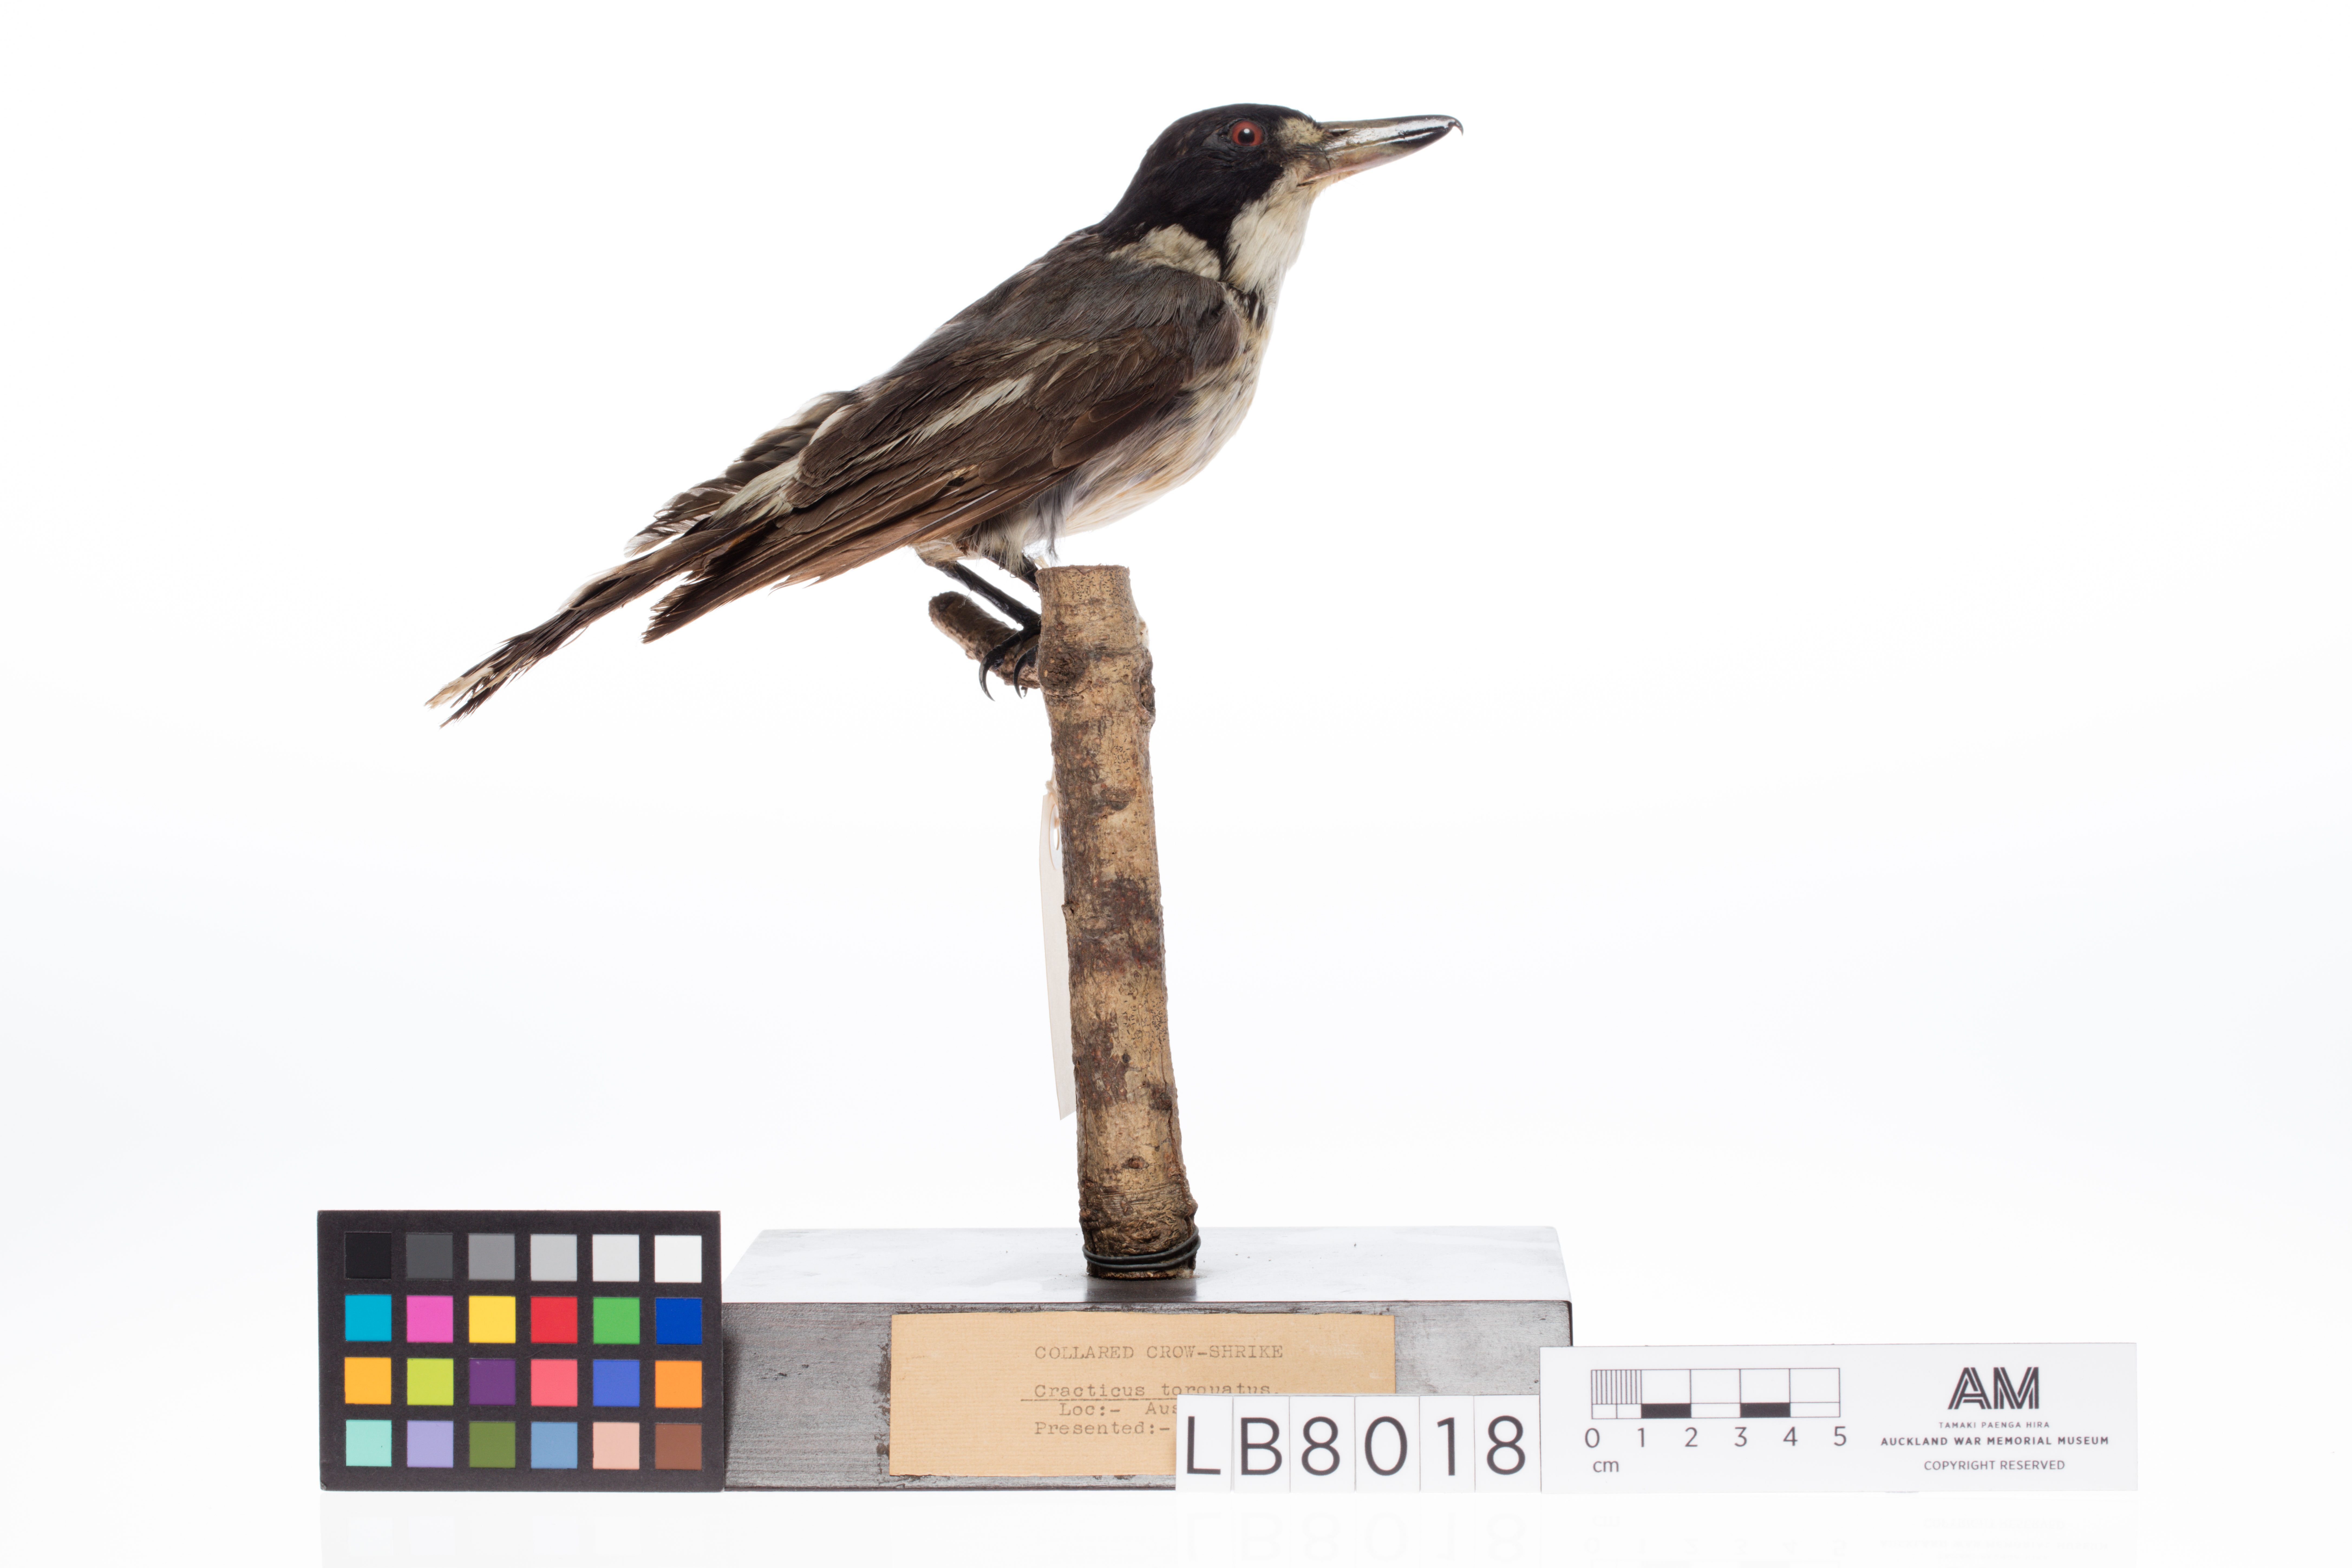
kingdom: Animalia
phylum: Chordata
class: Aves
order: Passeriformes
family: Cracticidae
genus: Cracticus
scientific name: Cracticus torquatus
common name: Grey butcherbird
